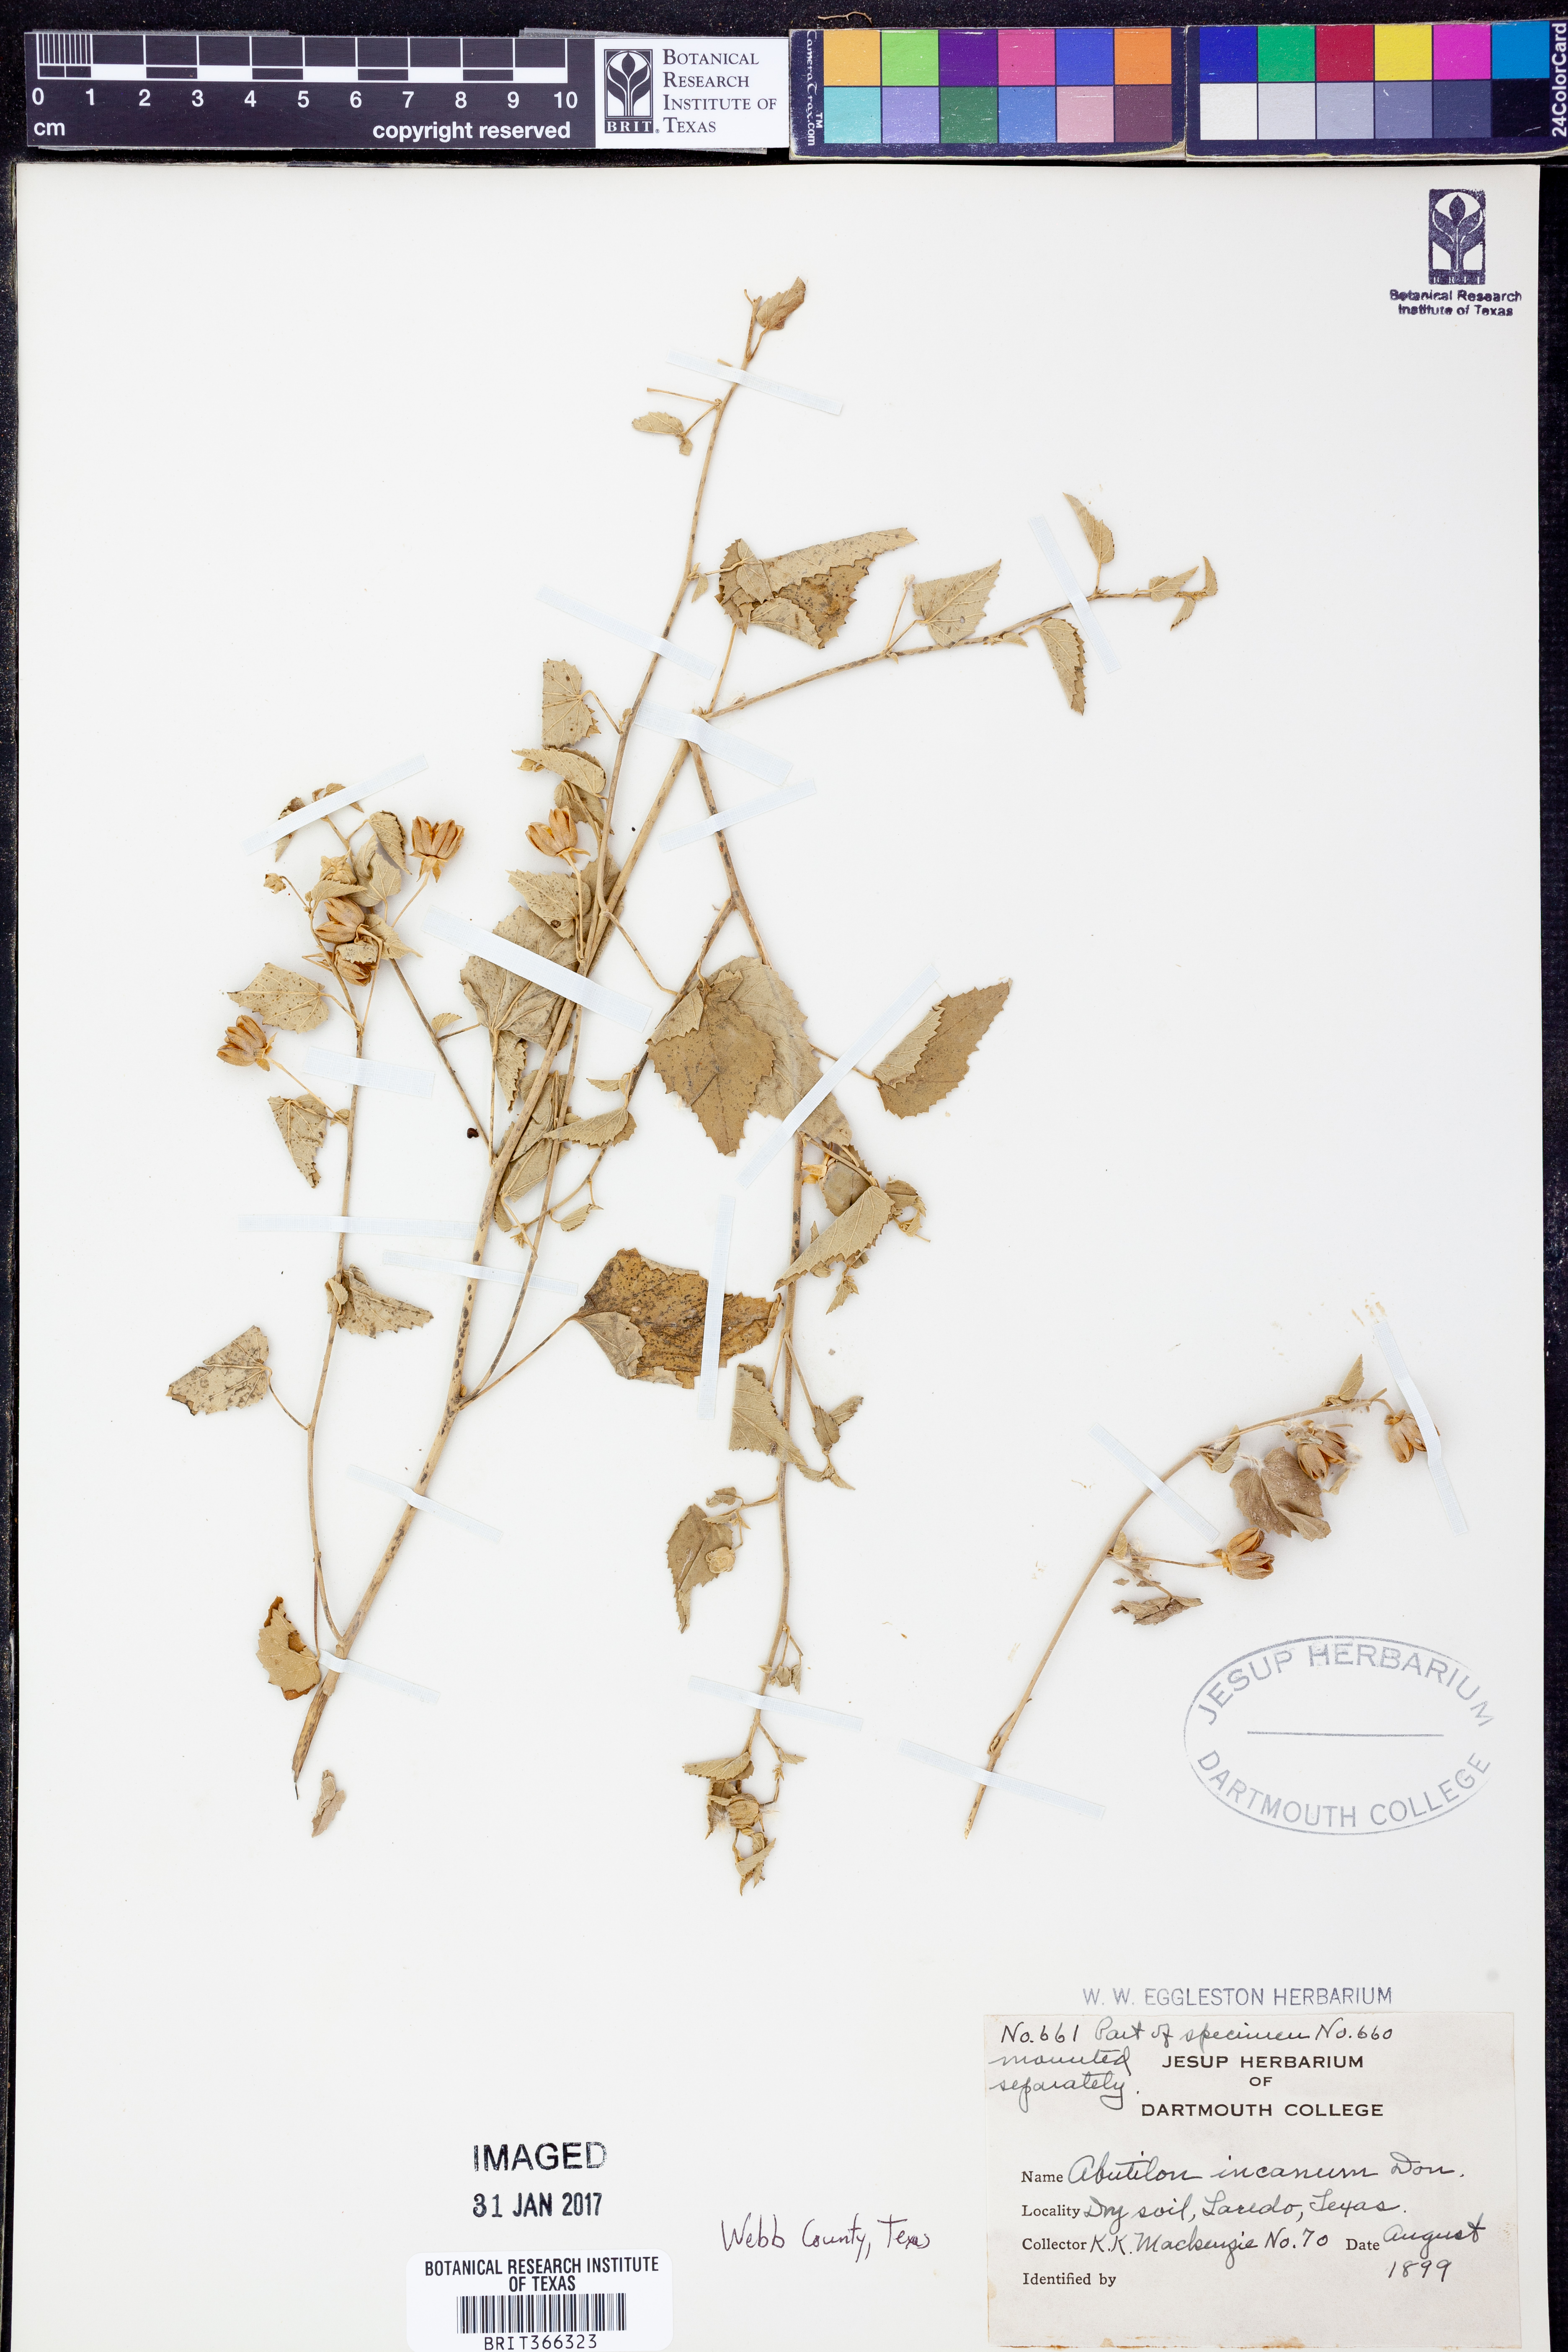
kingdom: Plantae
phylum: Tracheophyta
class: Magnoliopsida
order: Malvales
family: Malvaceae
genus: Abutilon
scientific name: Abutilon incanum
